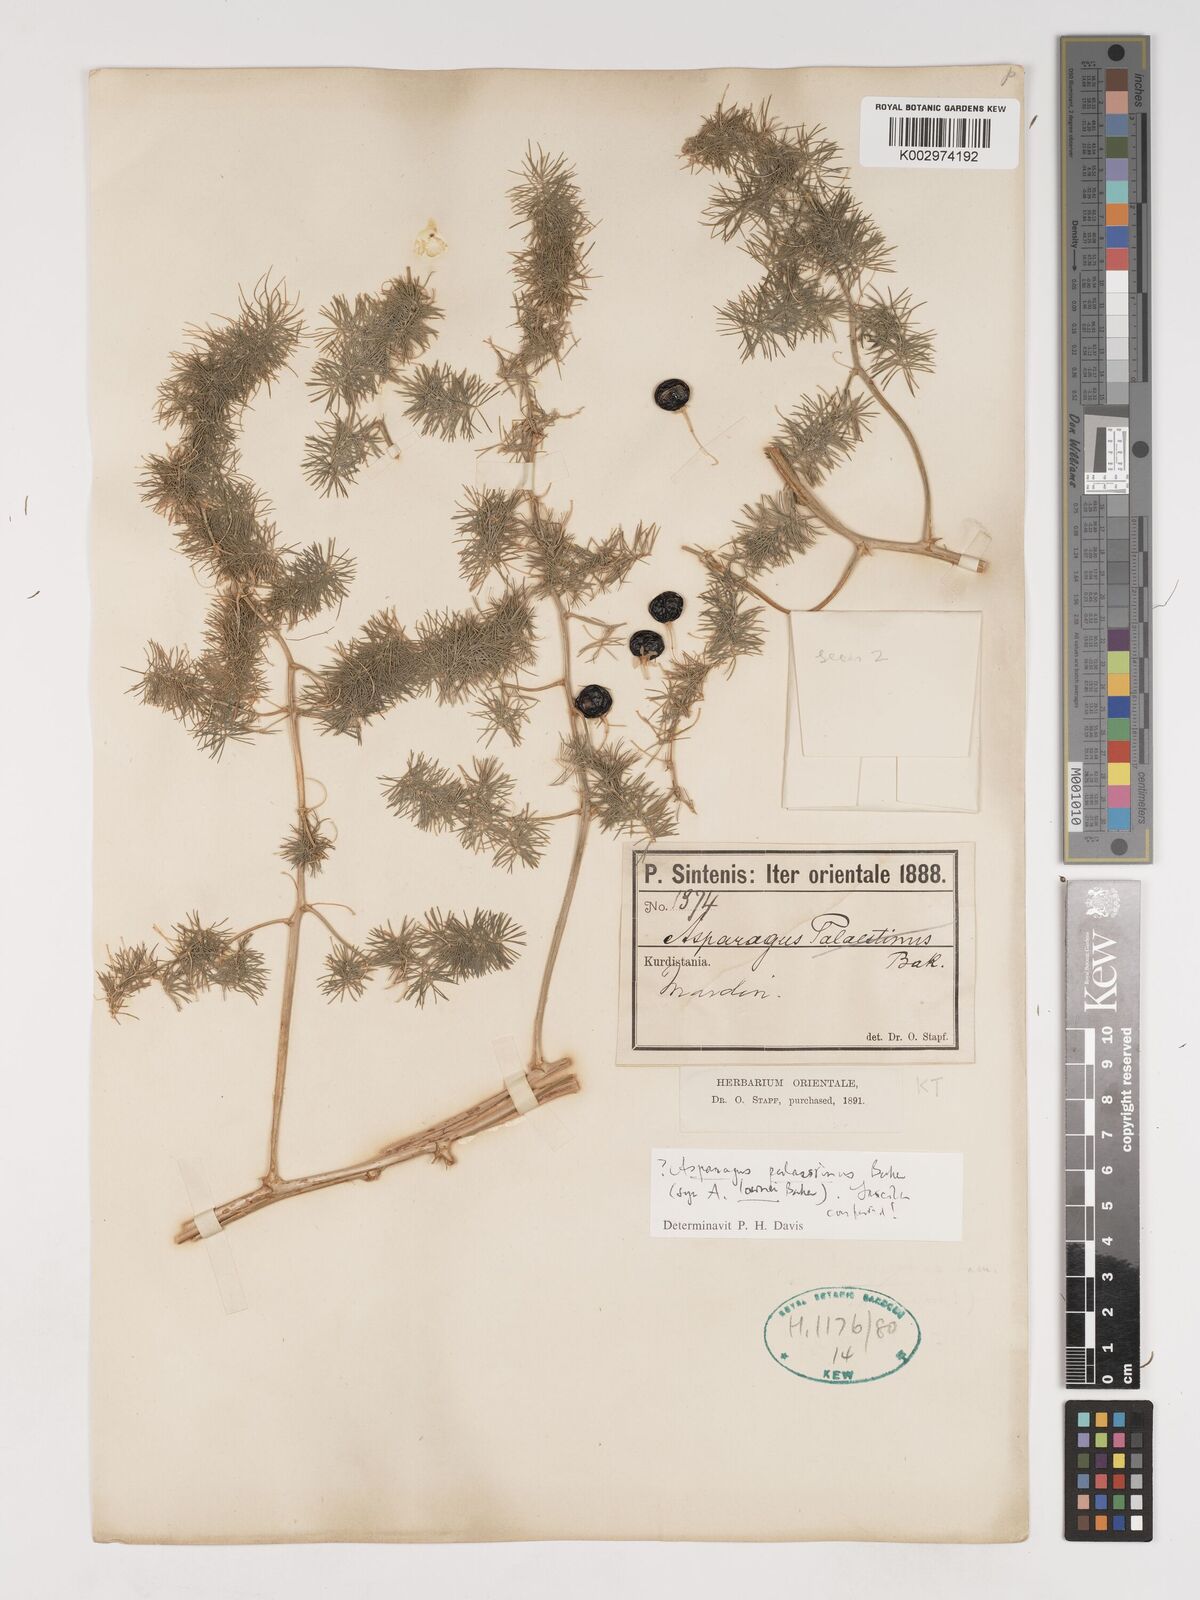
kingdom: Plantae
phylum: Tracheophyta
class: Liliopsida
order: Asparagales
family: Asparagaceae
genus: Asparagus
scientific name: Asparagus palaestinus
